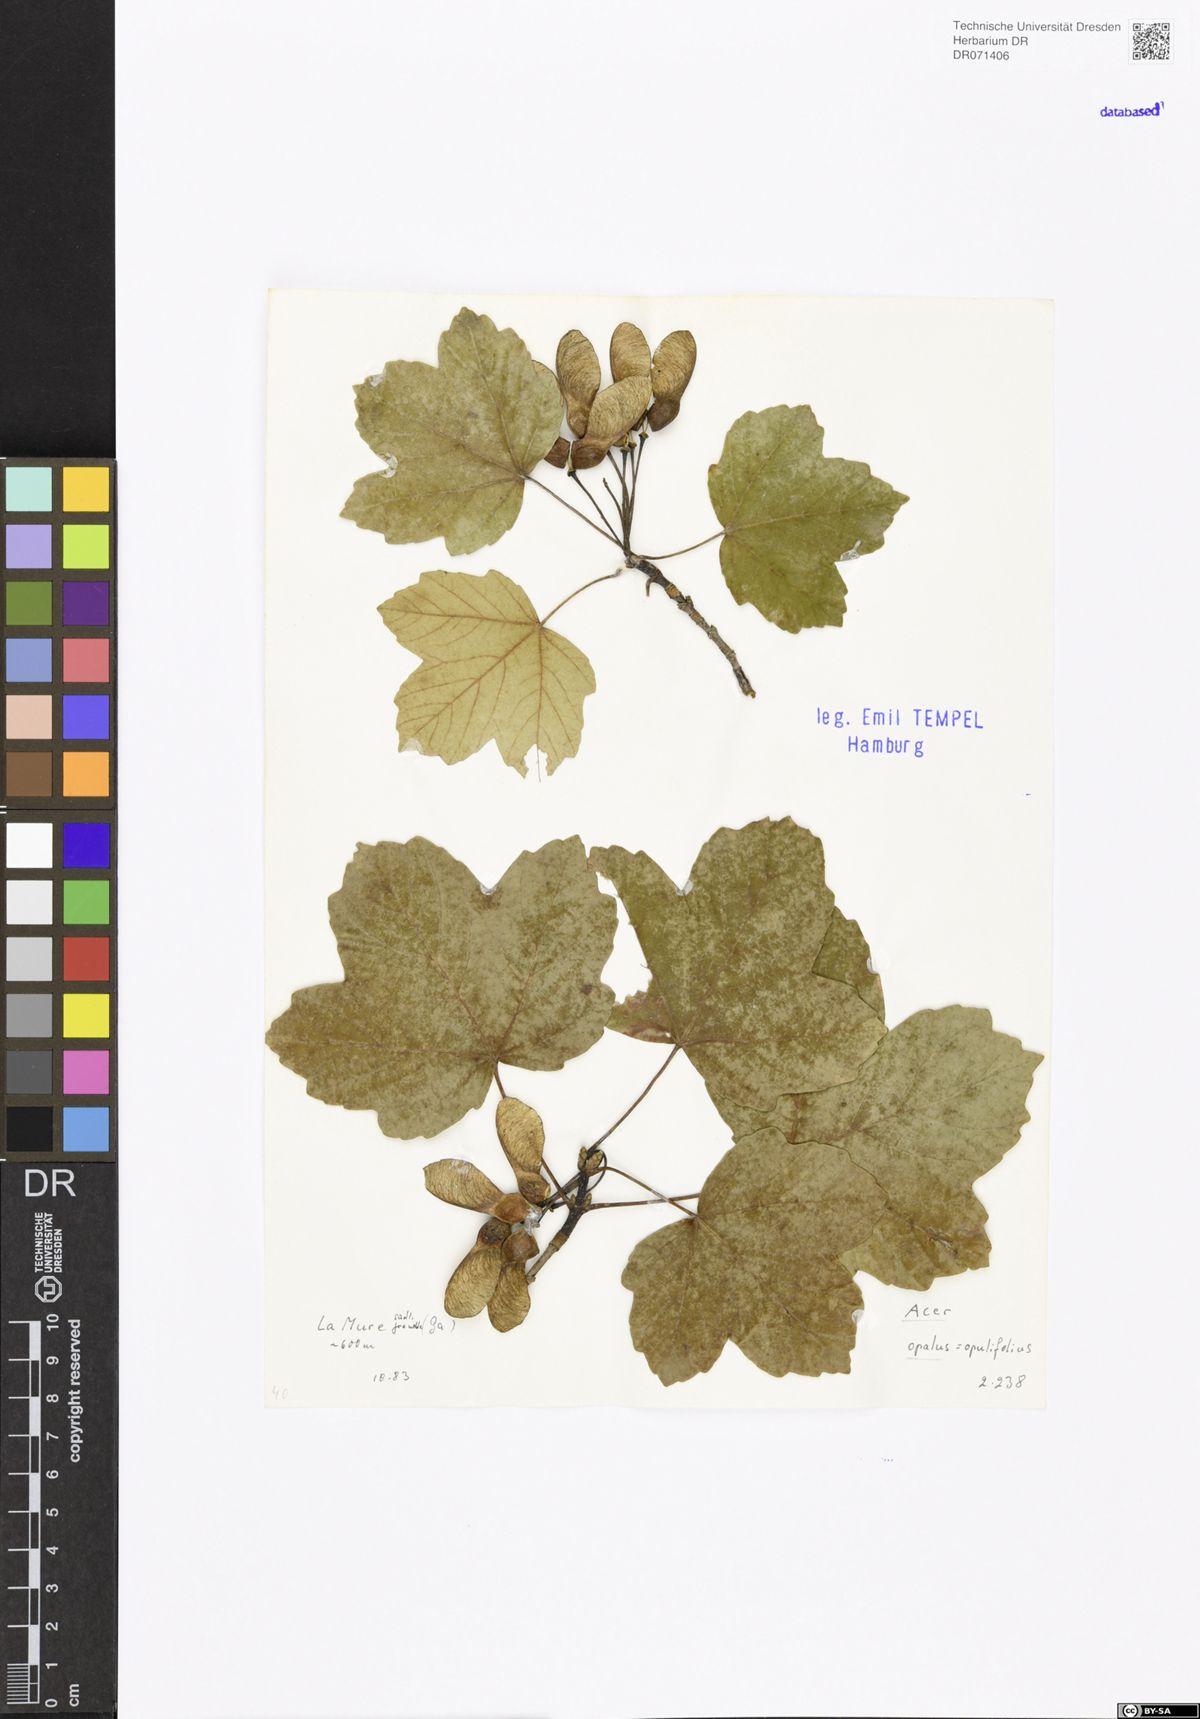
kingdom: Plantae
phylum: Tracheophyta
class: Magnoliopsida
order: Sapindales
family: Sapindaceae
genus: Acer
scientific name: Acer opalus
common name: Italian maple
